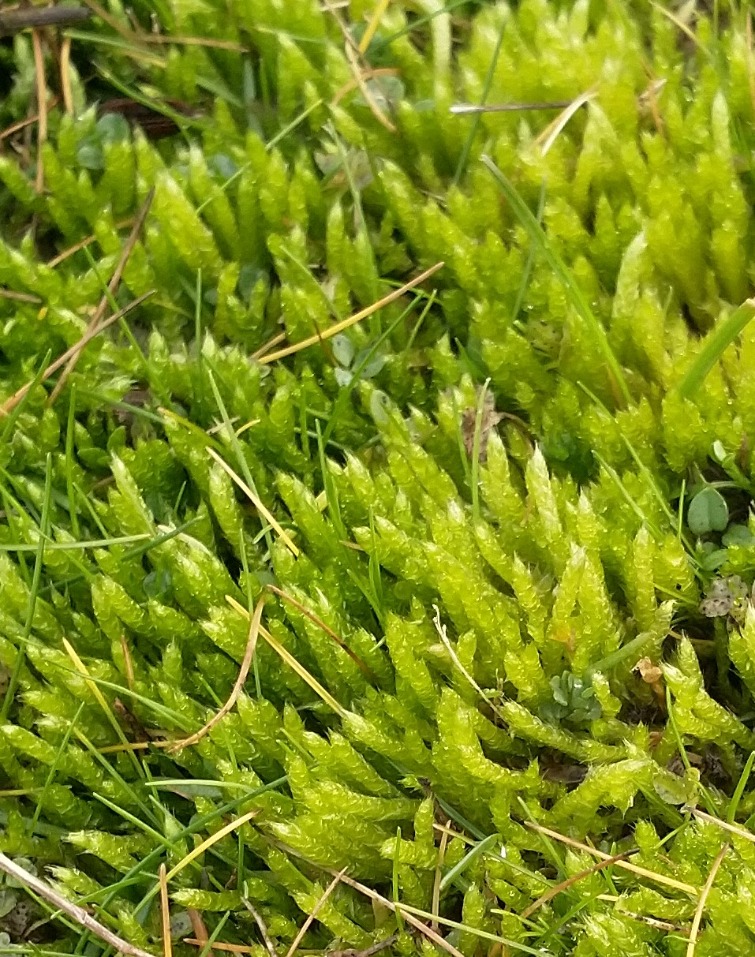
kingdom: Plantae
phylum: Bryophyta
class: Bryopsida
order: Hypnales
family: Brachytheciaceae
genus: Brachythecium
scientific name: Brachythecium albicans
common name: Hvidlig kortkapsel
